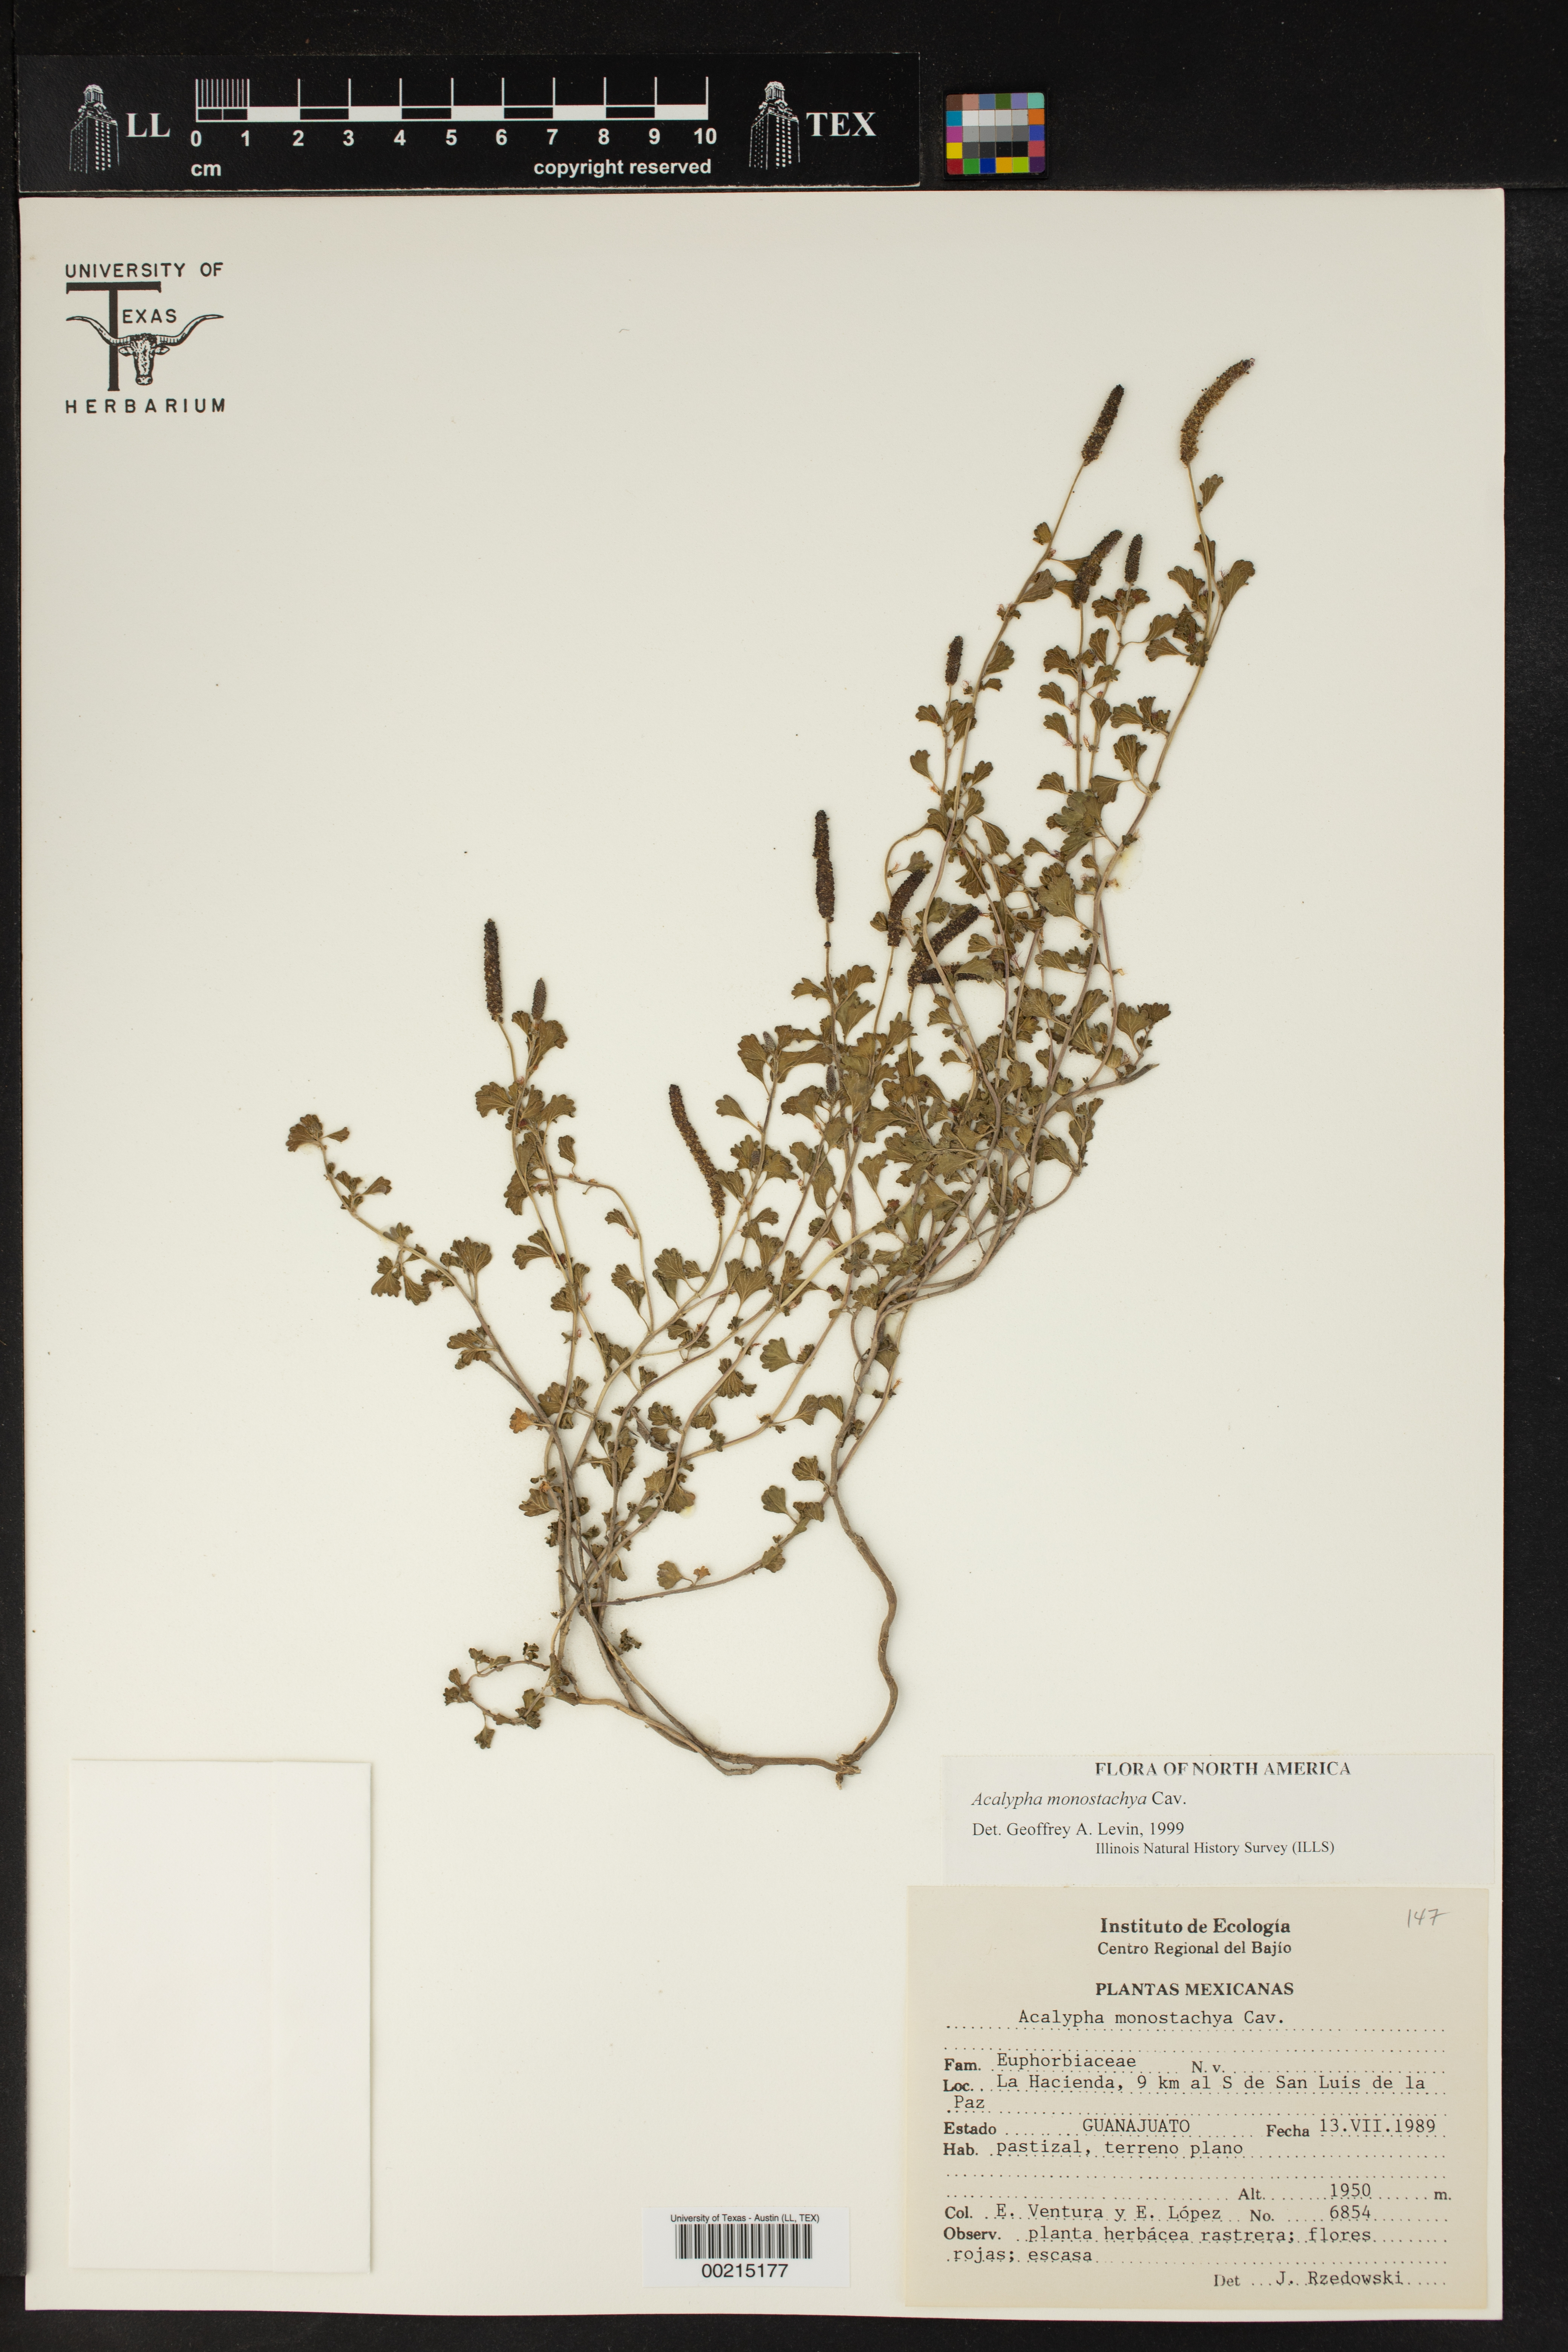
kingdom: Plantae
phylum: Tracheophyta
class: Magnoliopsida
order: Malpighiales
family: Euphorbiaceae
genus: Acalypha
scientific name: Acalypha monostachya
